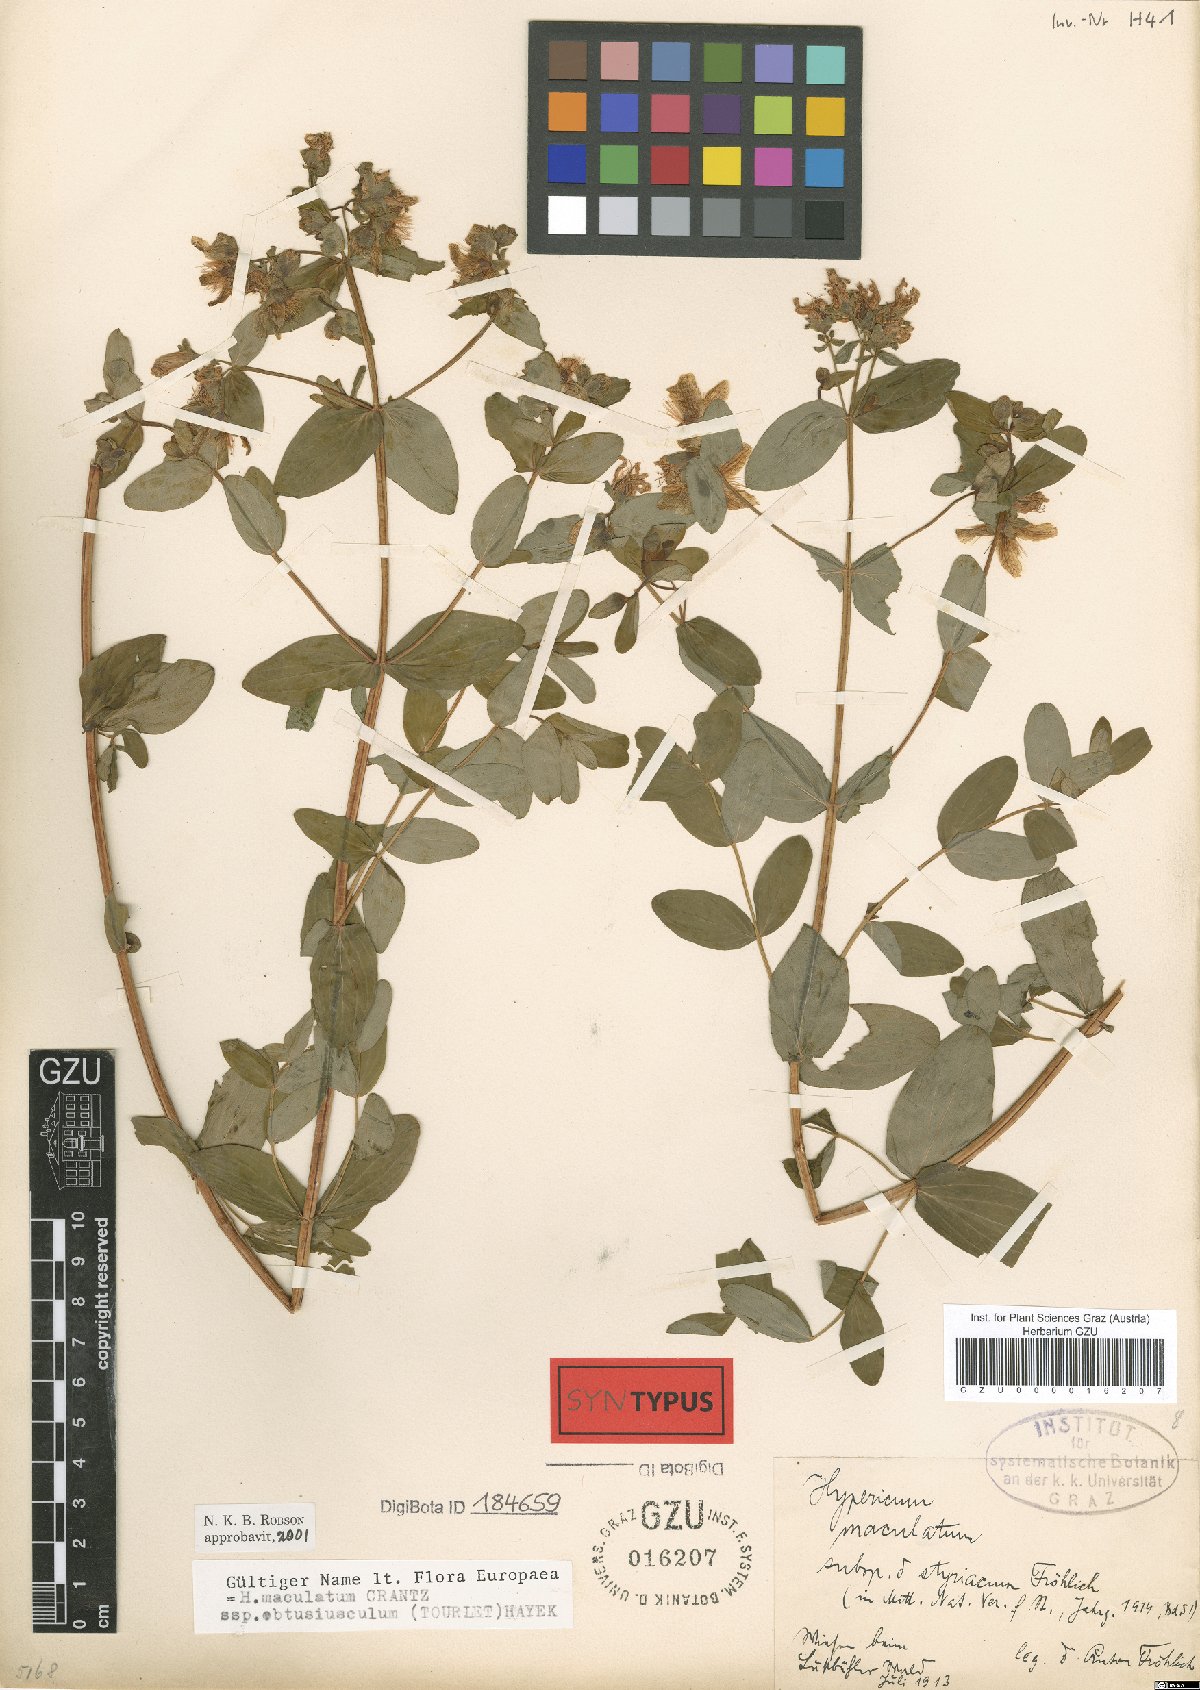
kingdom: Plantae
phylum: Tracheophyta
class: Magnoliopsida
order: Malpighiales
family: Hypericaceae
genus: Hypericum
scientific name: Hypericum dubium
